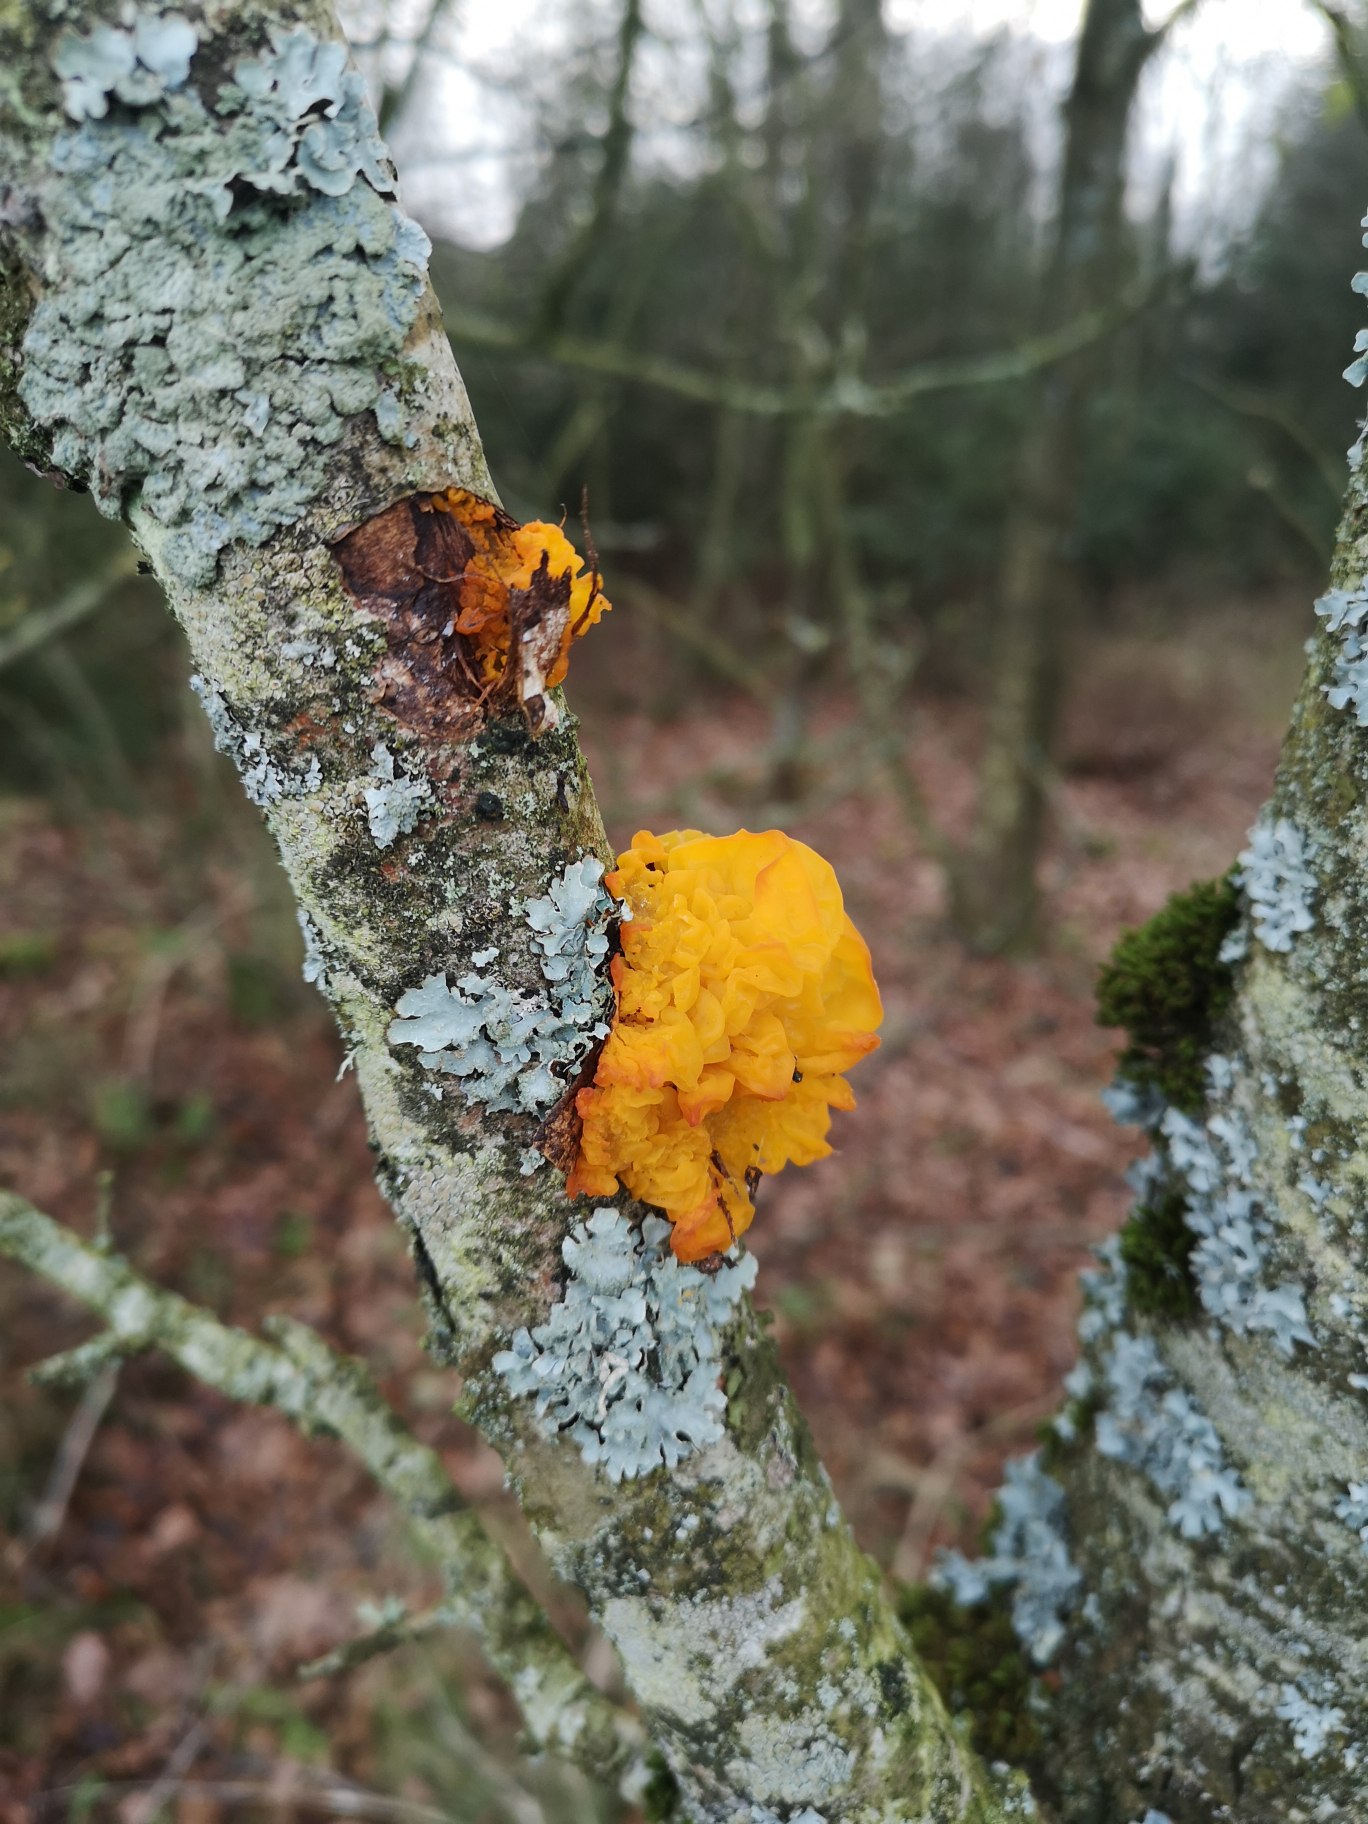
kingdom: Fungi
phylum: Basidiomycota
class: Tremellomycetes
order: Tremellales
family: Tremellaceae
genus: Tremella
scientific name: Tremella mesenterica
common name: Gul bævresvamp
